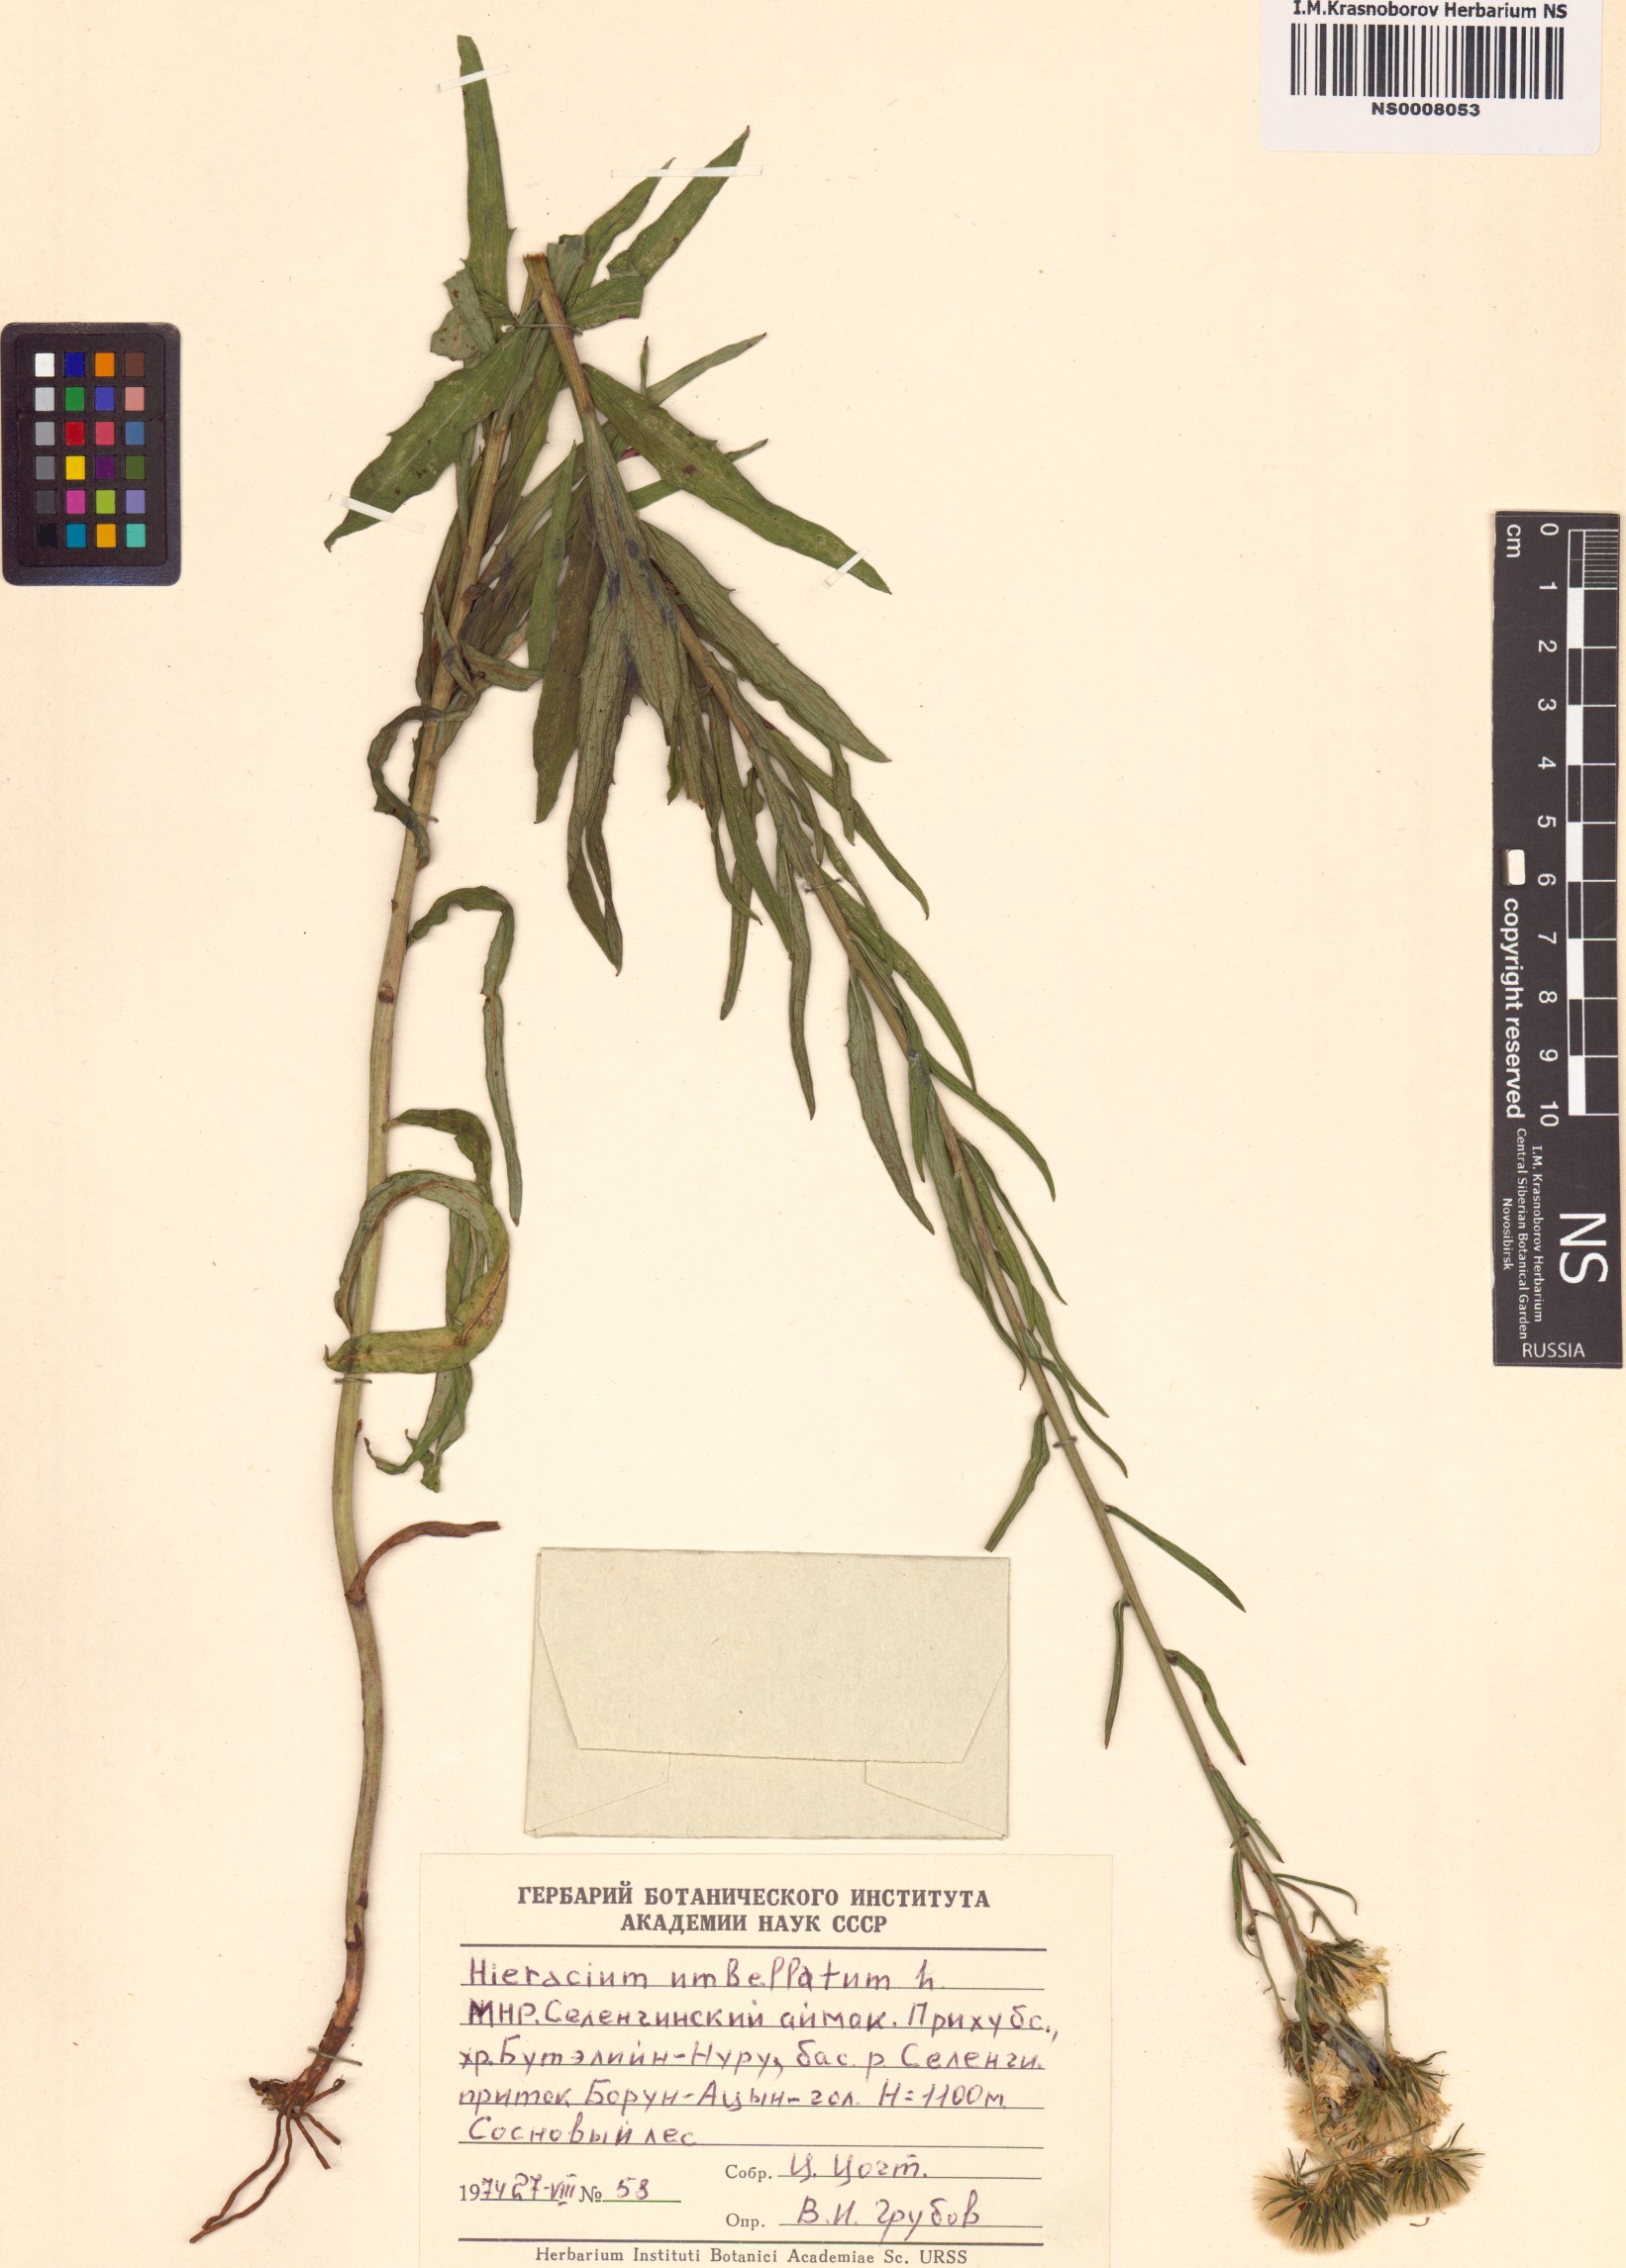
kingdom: Plantae
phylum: Tracheophyta
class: Magnoliopsida
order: Asterales
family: Asteraceae
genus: Hieracium
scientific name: Hieracium umbellatum
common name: Northern hawkweed
